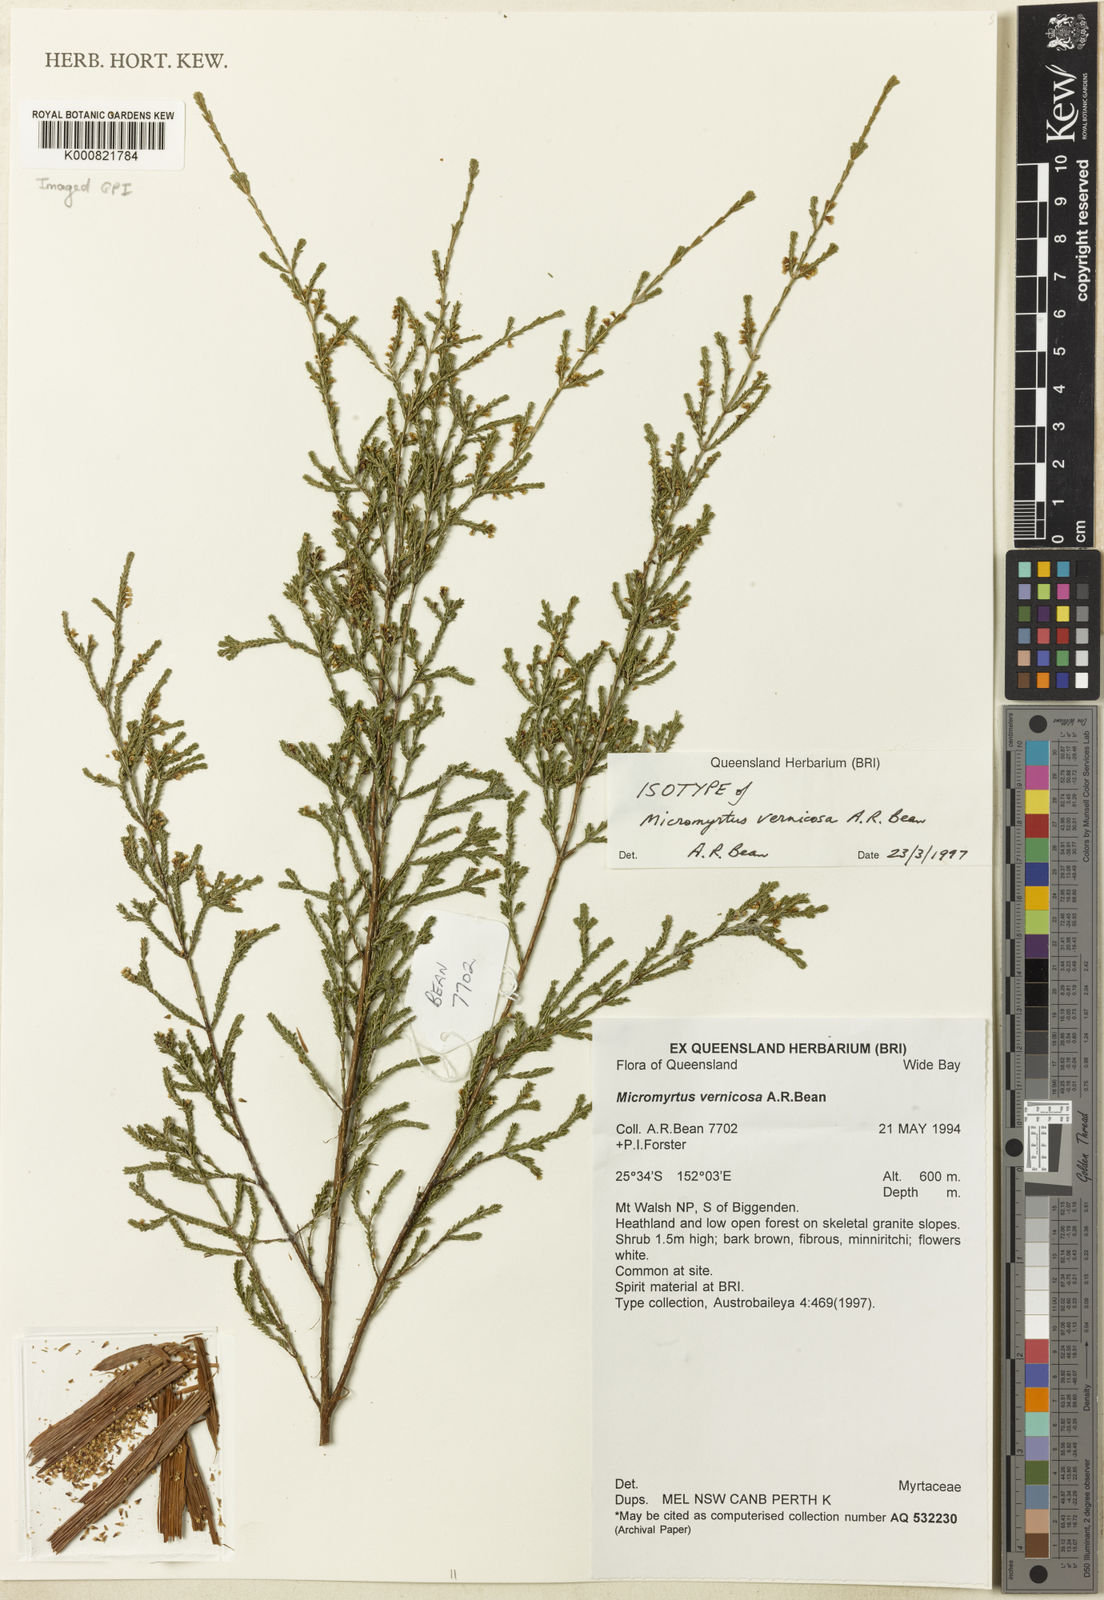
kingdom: Plantae
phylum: Tracheophyta
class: Magnoliopsida
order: Myrtales
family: Myrtaceae
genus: Micromyrtus
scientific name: Micromyrtus vernicosa
